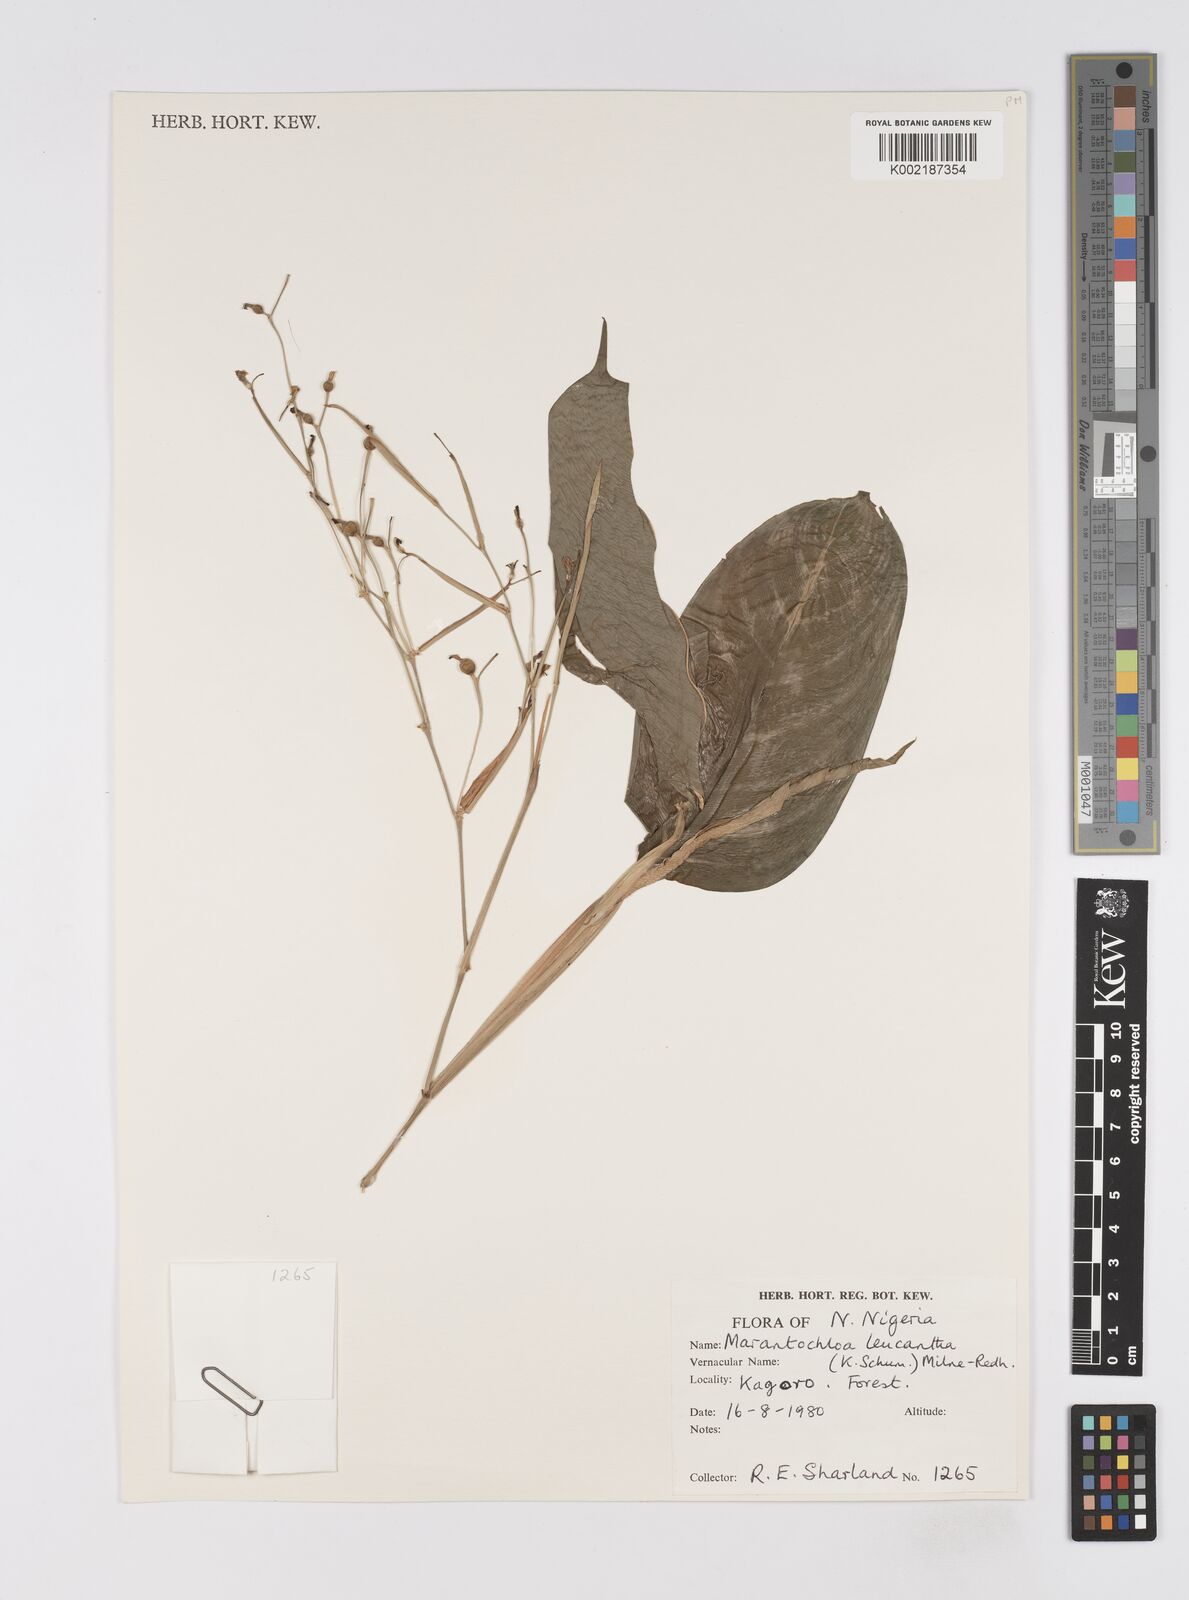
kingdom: Plantae
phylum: Tracheophyta
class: Liliopsida
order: Zingiberales
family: Marantaceae
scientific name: Marantaceae
